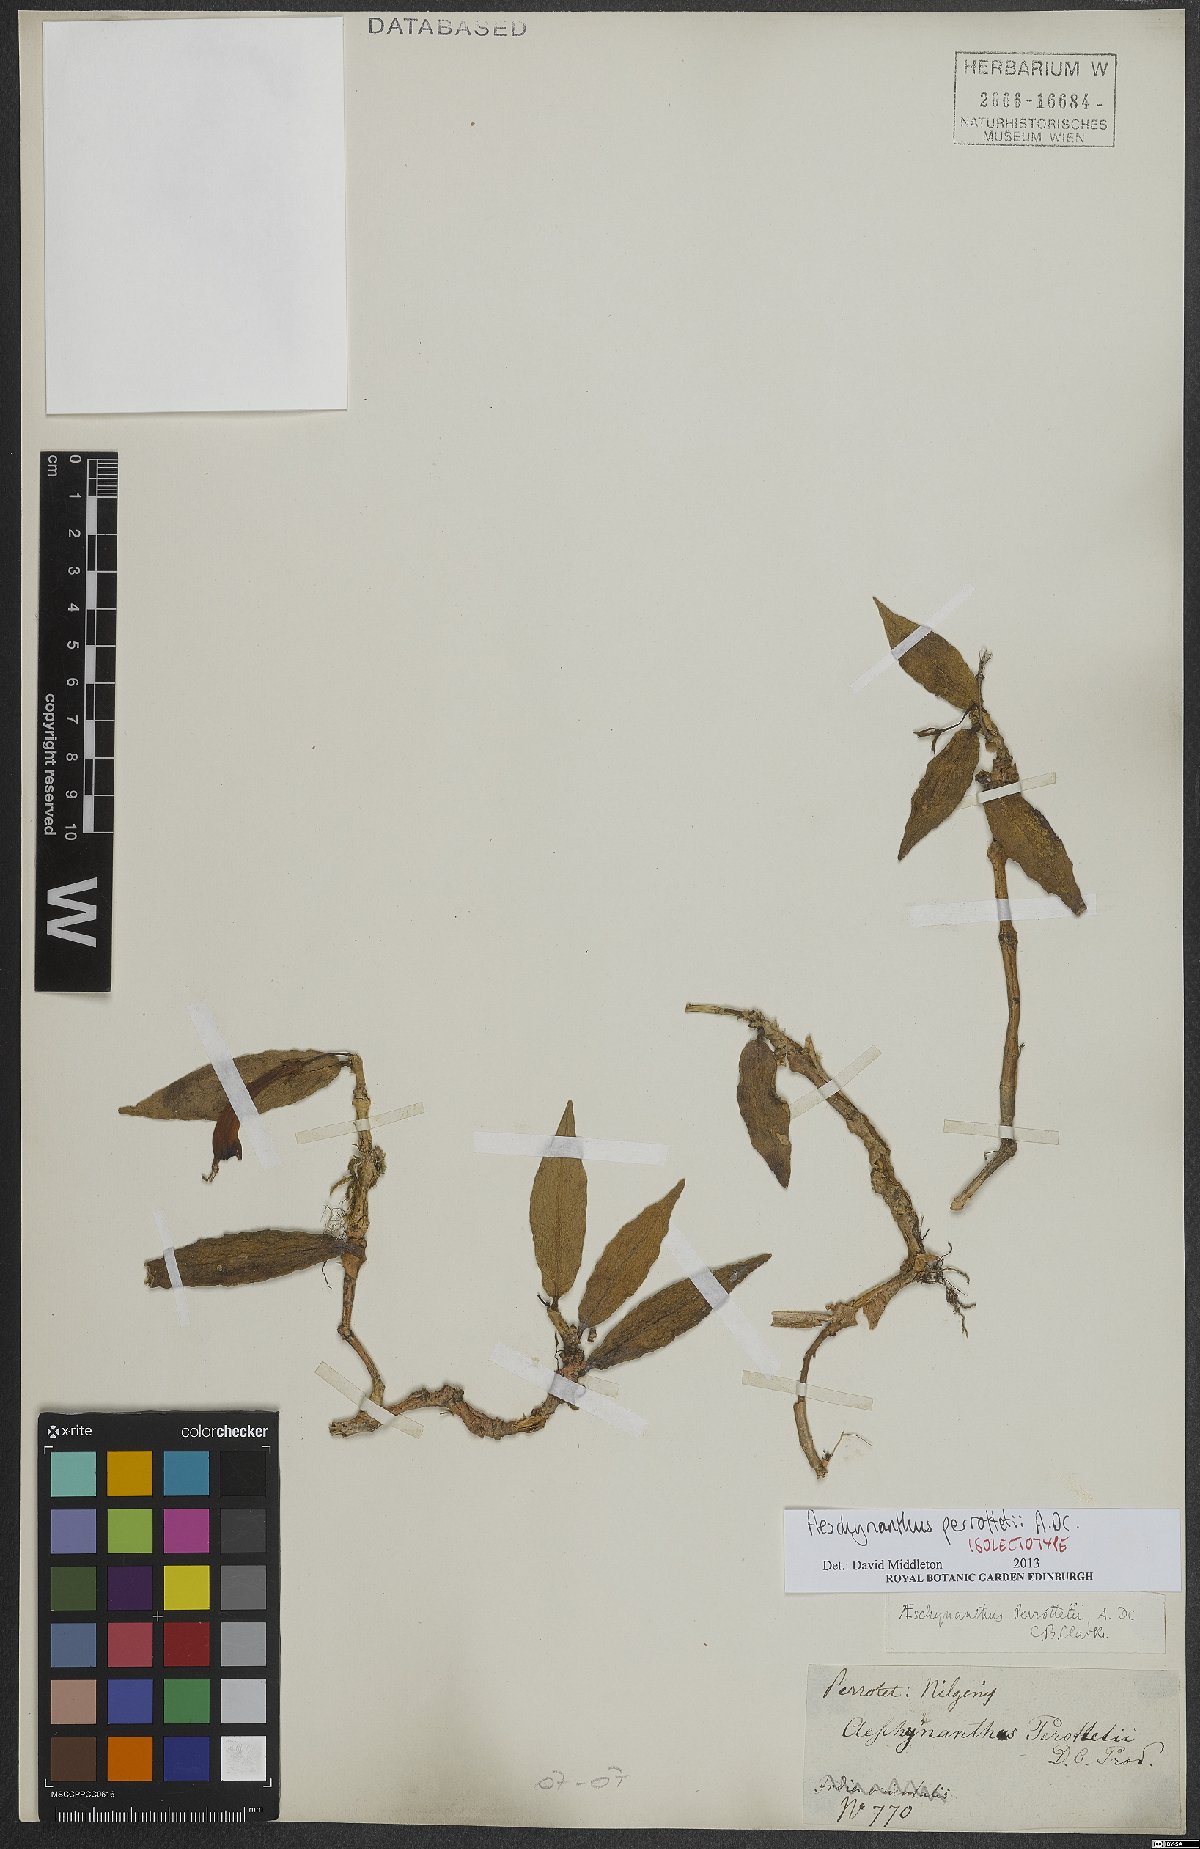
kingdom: Plantae
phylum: Tracheophyta
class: Magnoliopsida
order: Lamiales
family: Gesneriaceae
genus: Aeschynanthus
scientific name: Aeschynanthus perrottetii
